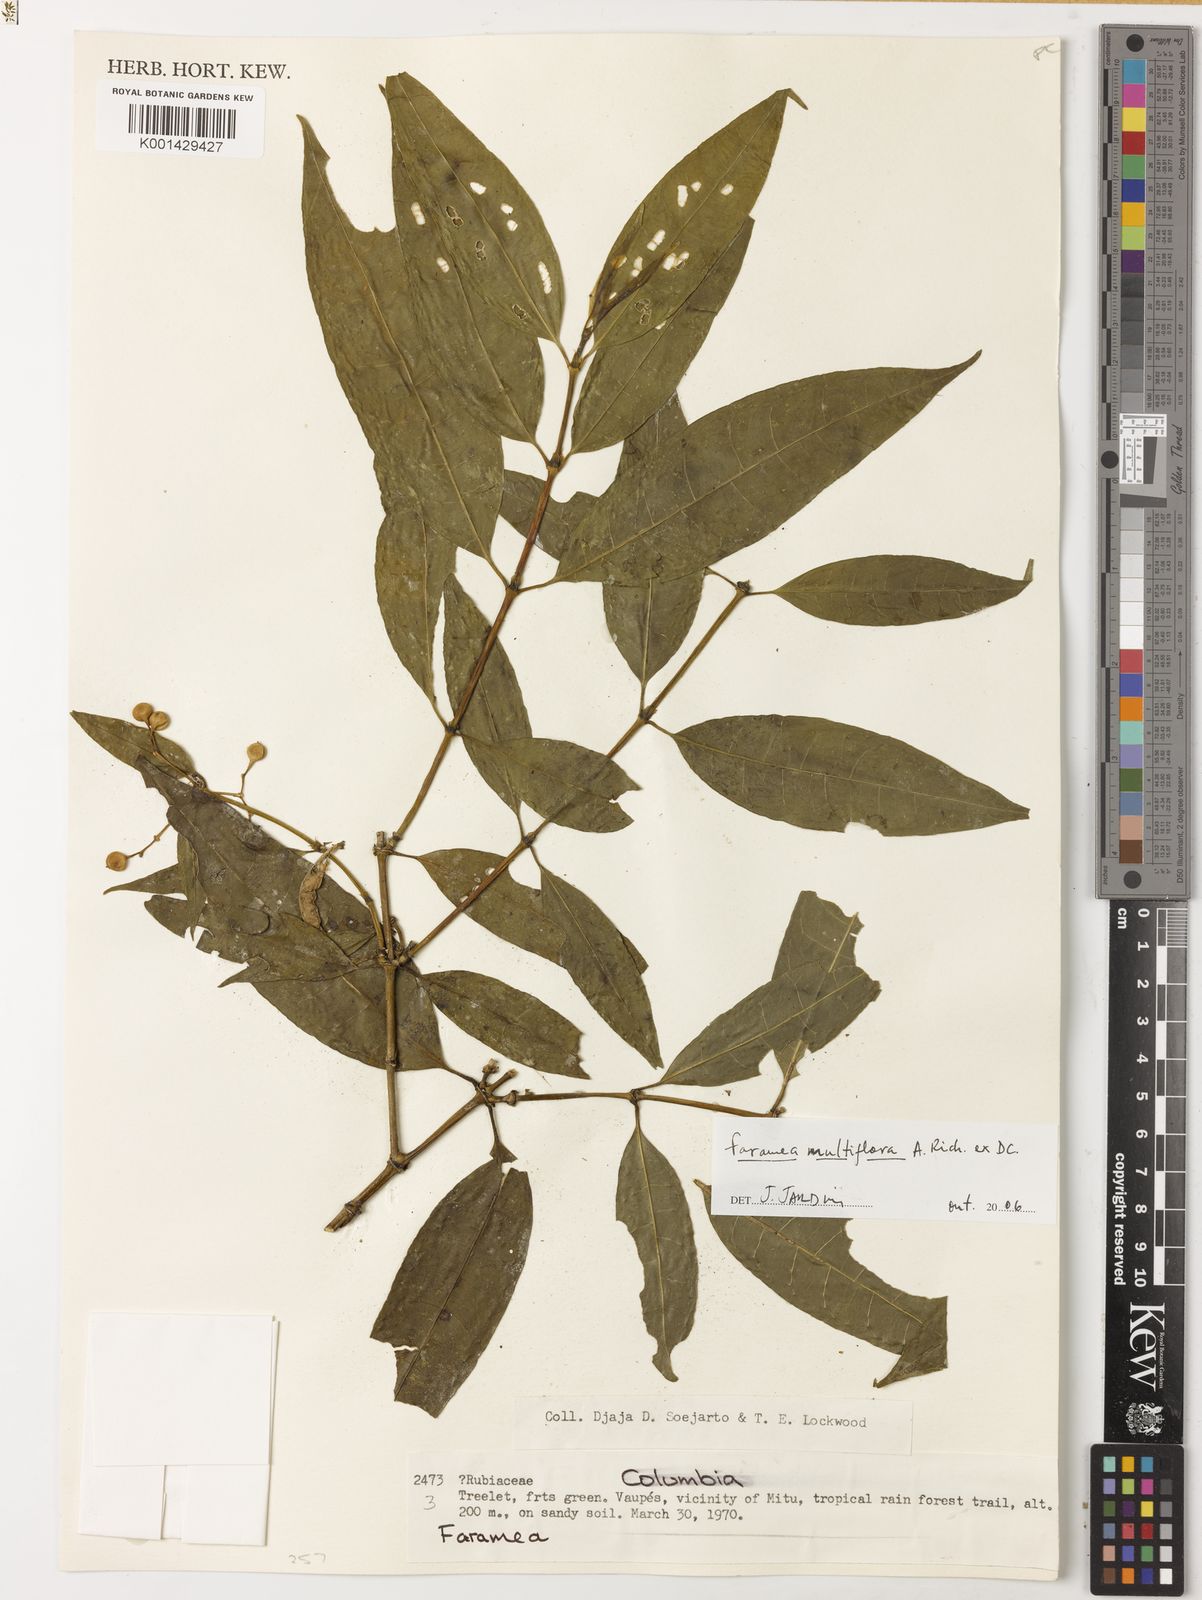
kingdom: Plantae
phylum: Tracheophyta
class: Magnoliopsida
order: Gentianales
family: Rubiaceae
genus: Faramea
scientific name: Faramea multiflora
